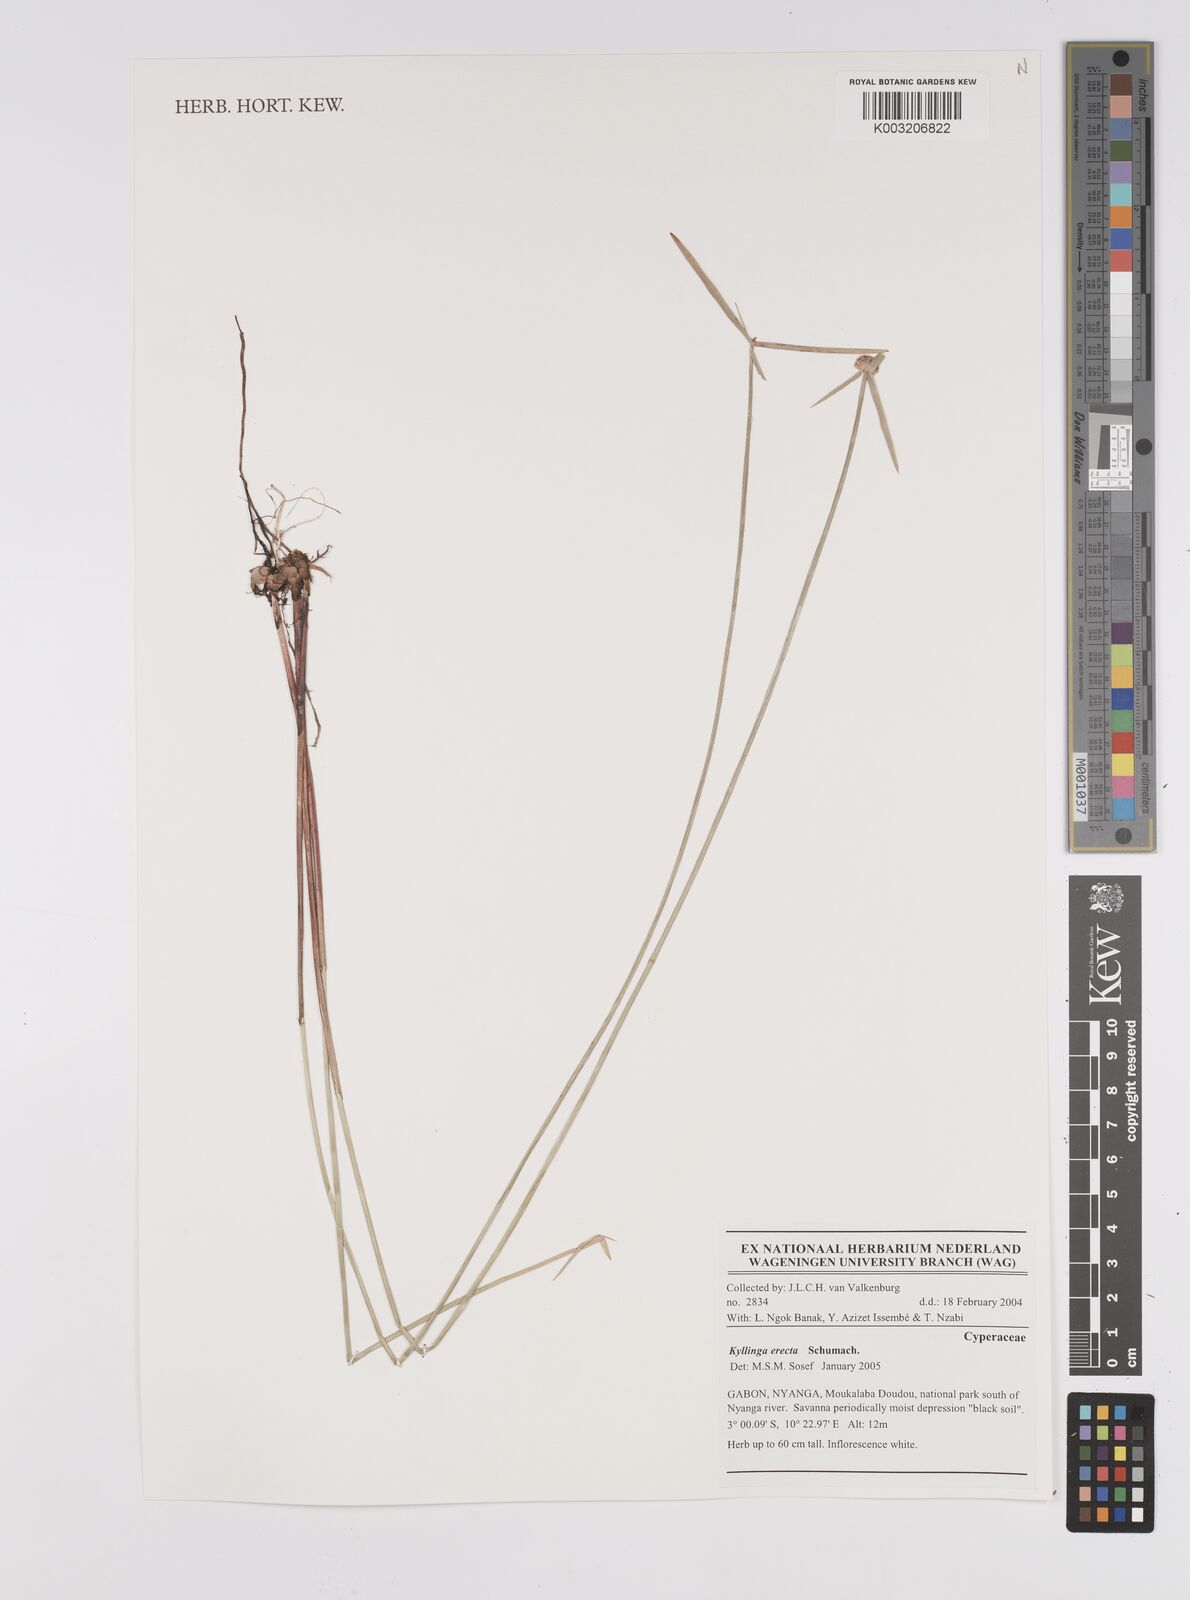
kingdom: Plantae
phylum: Tracheophyta
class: Liliopsida
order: Poales
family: Cyperaceae
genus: Cyperus
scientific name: Cyperus erectus
